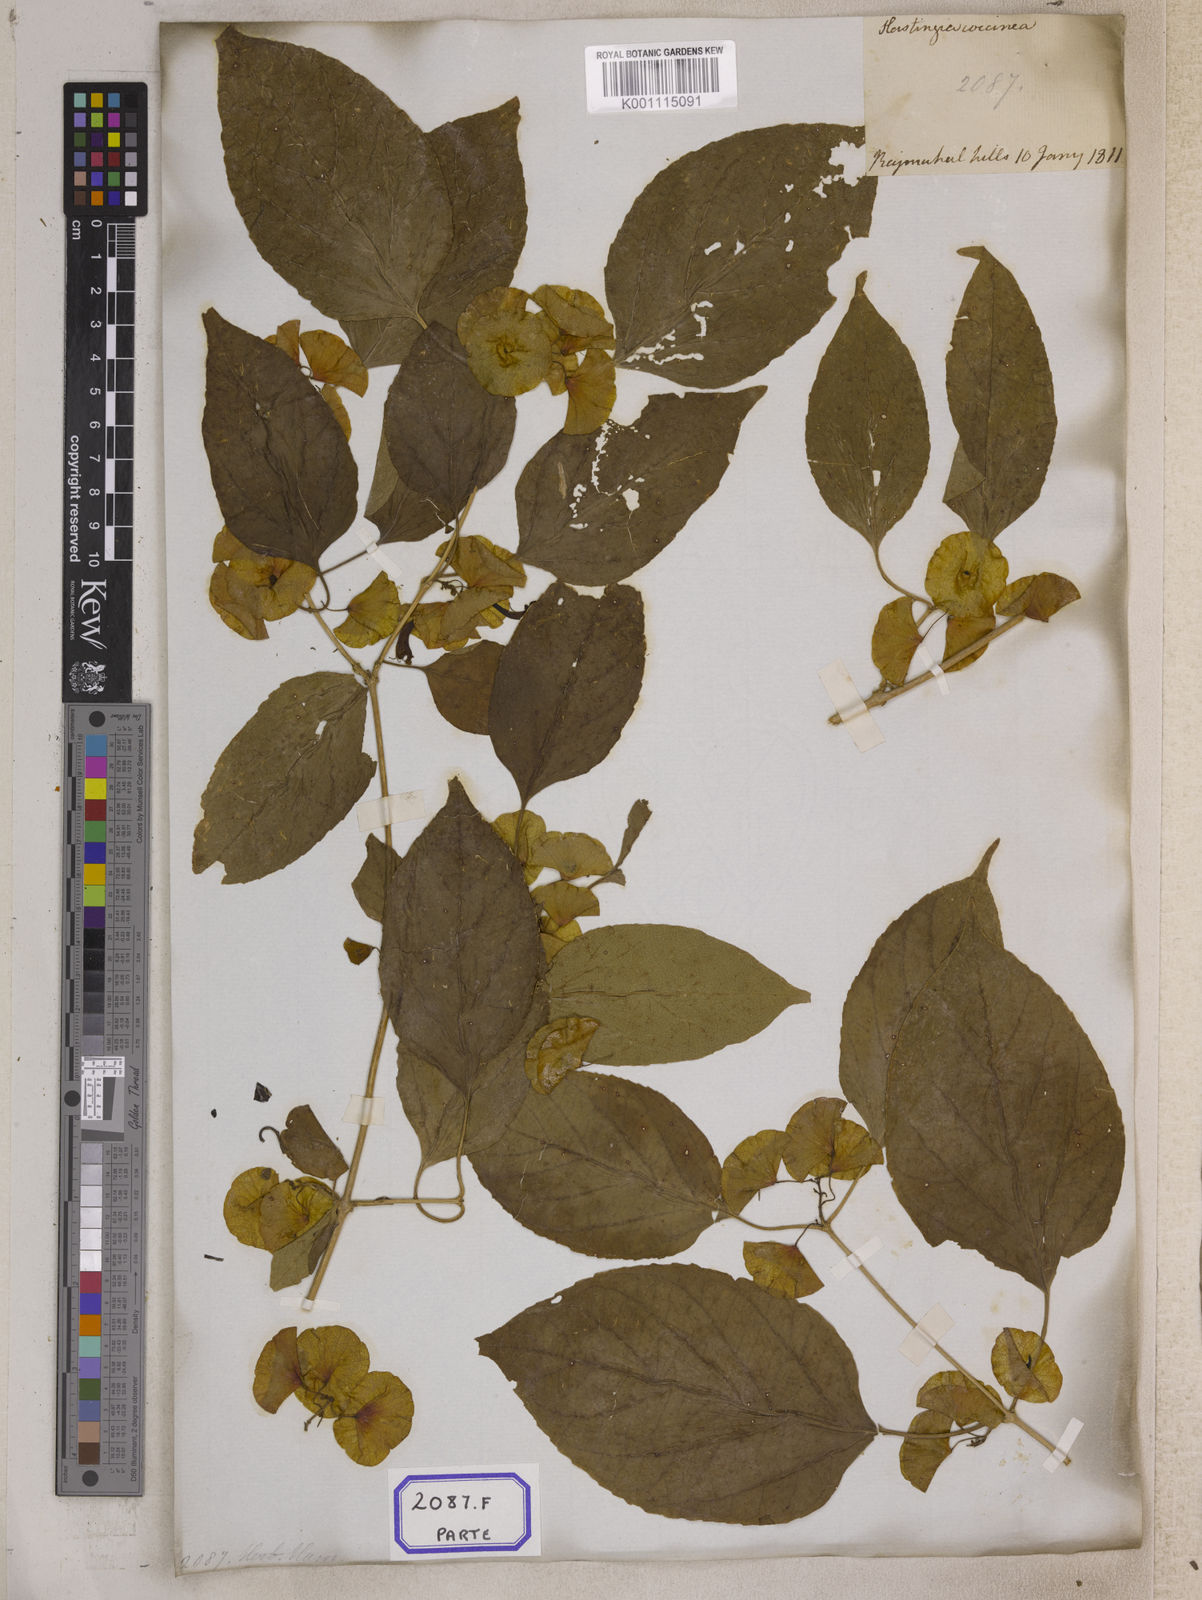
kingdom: Plantae
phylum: Tracheophyta
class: Magnoliopsida
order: Lamiales
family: Lamiaceae
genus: Holmskioldia
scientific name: Holmskioldia sanguinea
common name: Chinese hatplant
